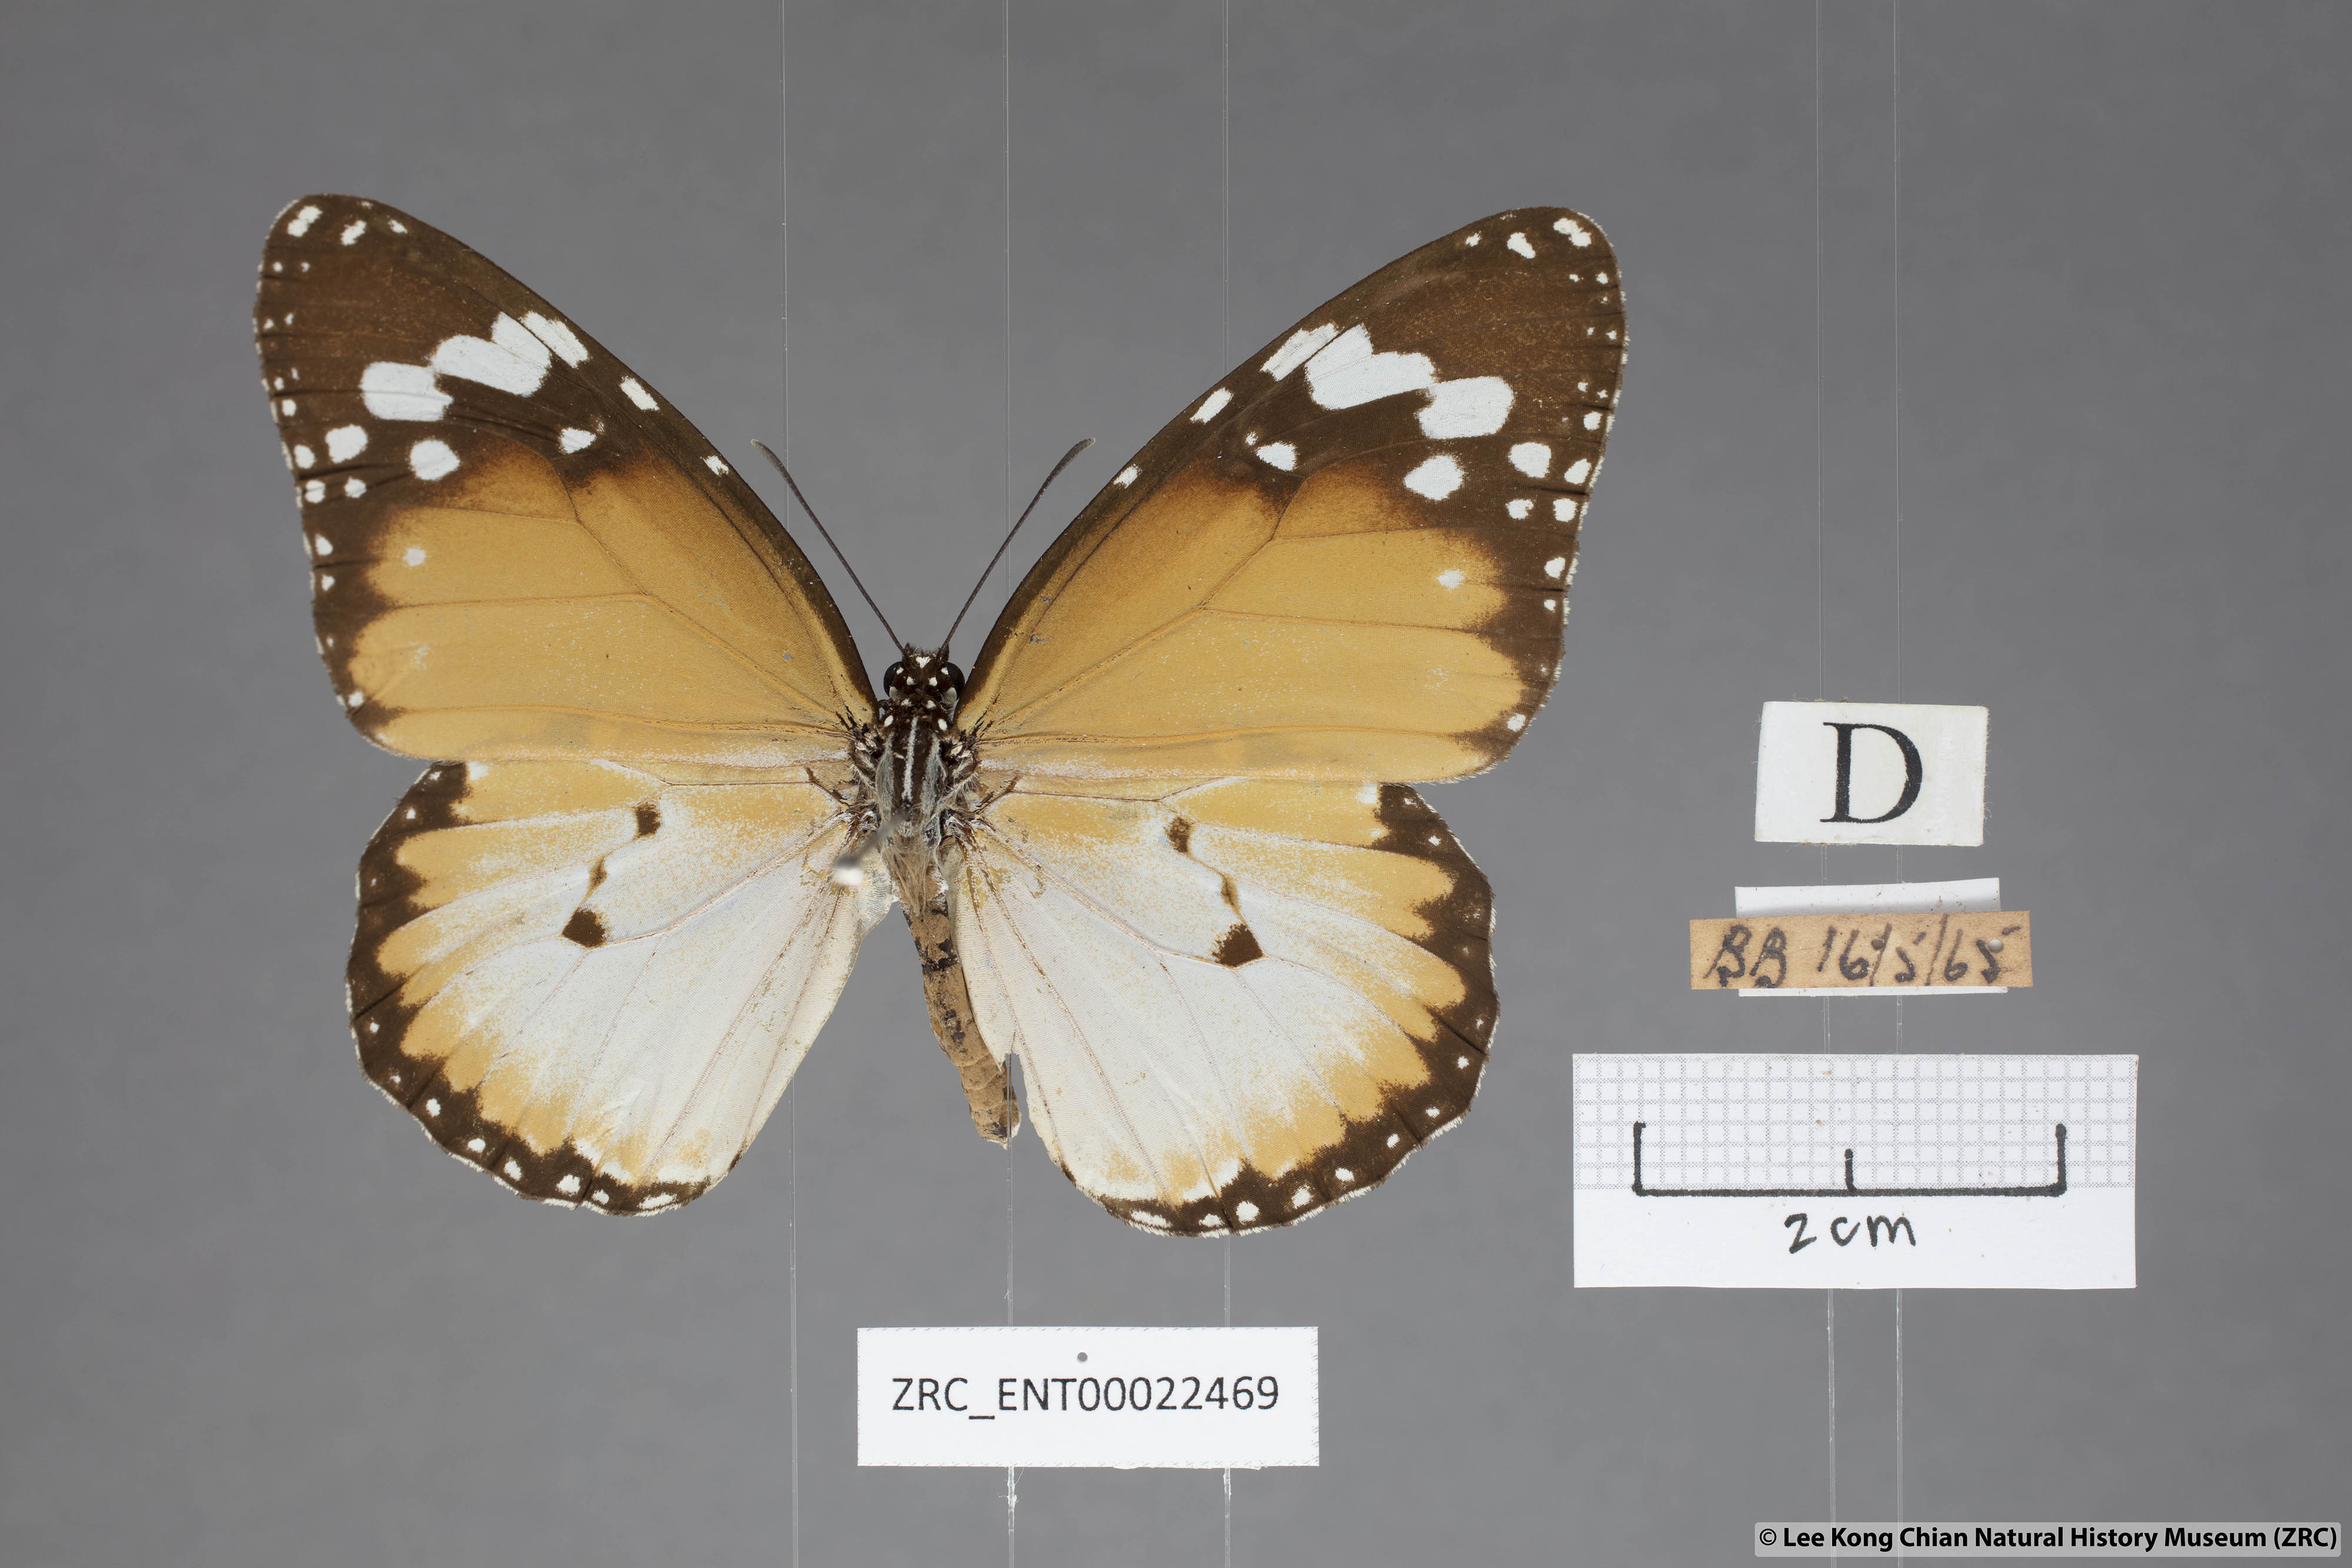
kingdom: Animalia
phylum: Arthropoda
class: Insecta
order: Lepidoptera
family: Nymphalidae
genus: Danaus
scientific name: Danaus chrysippus
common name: Plain tiger
